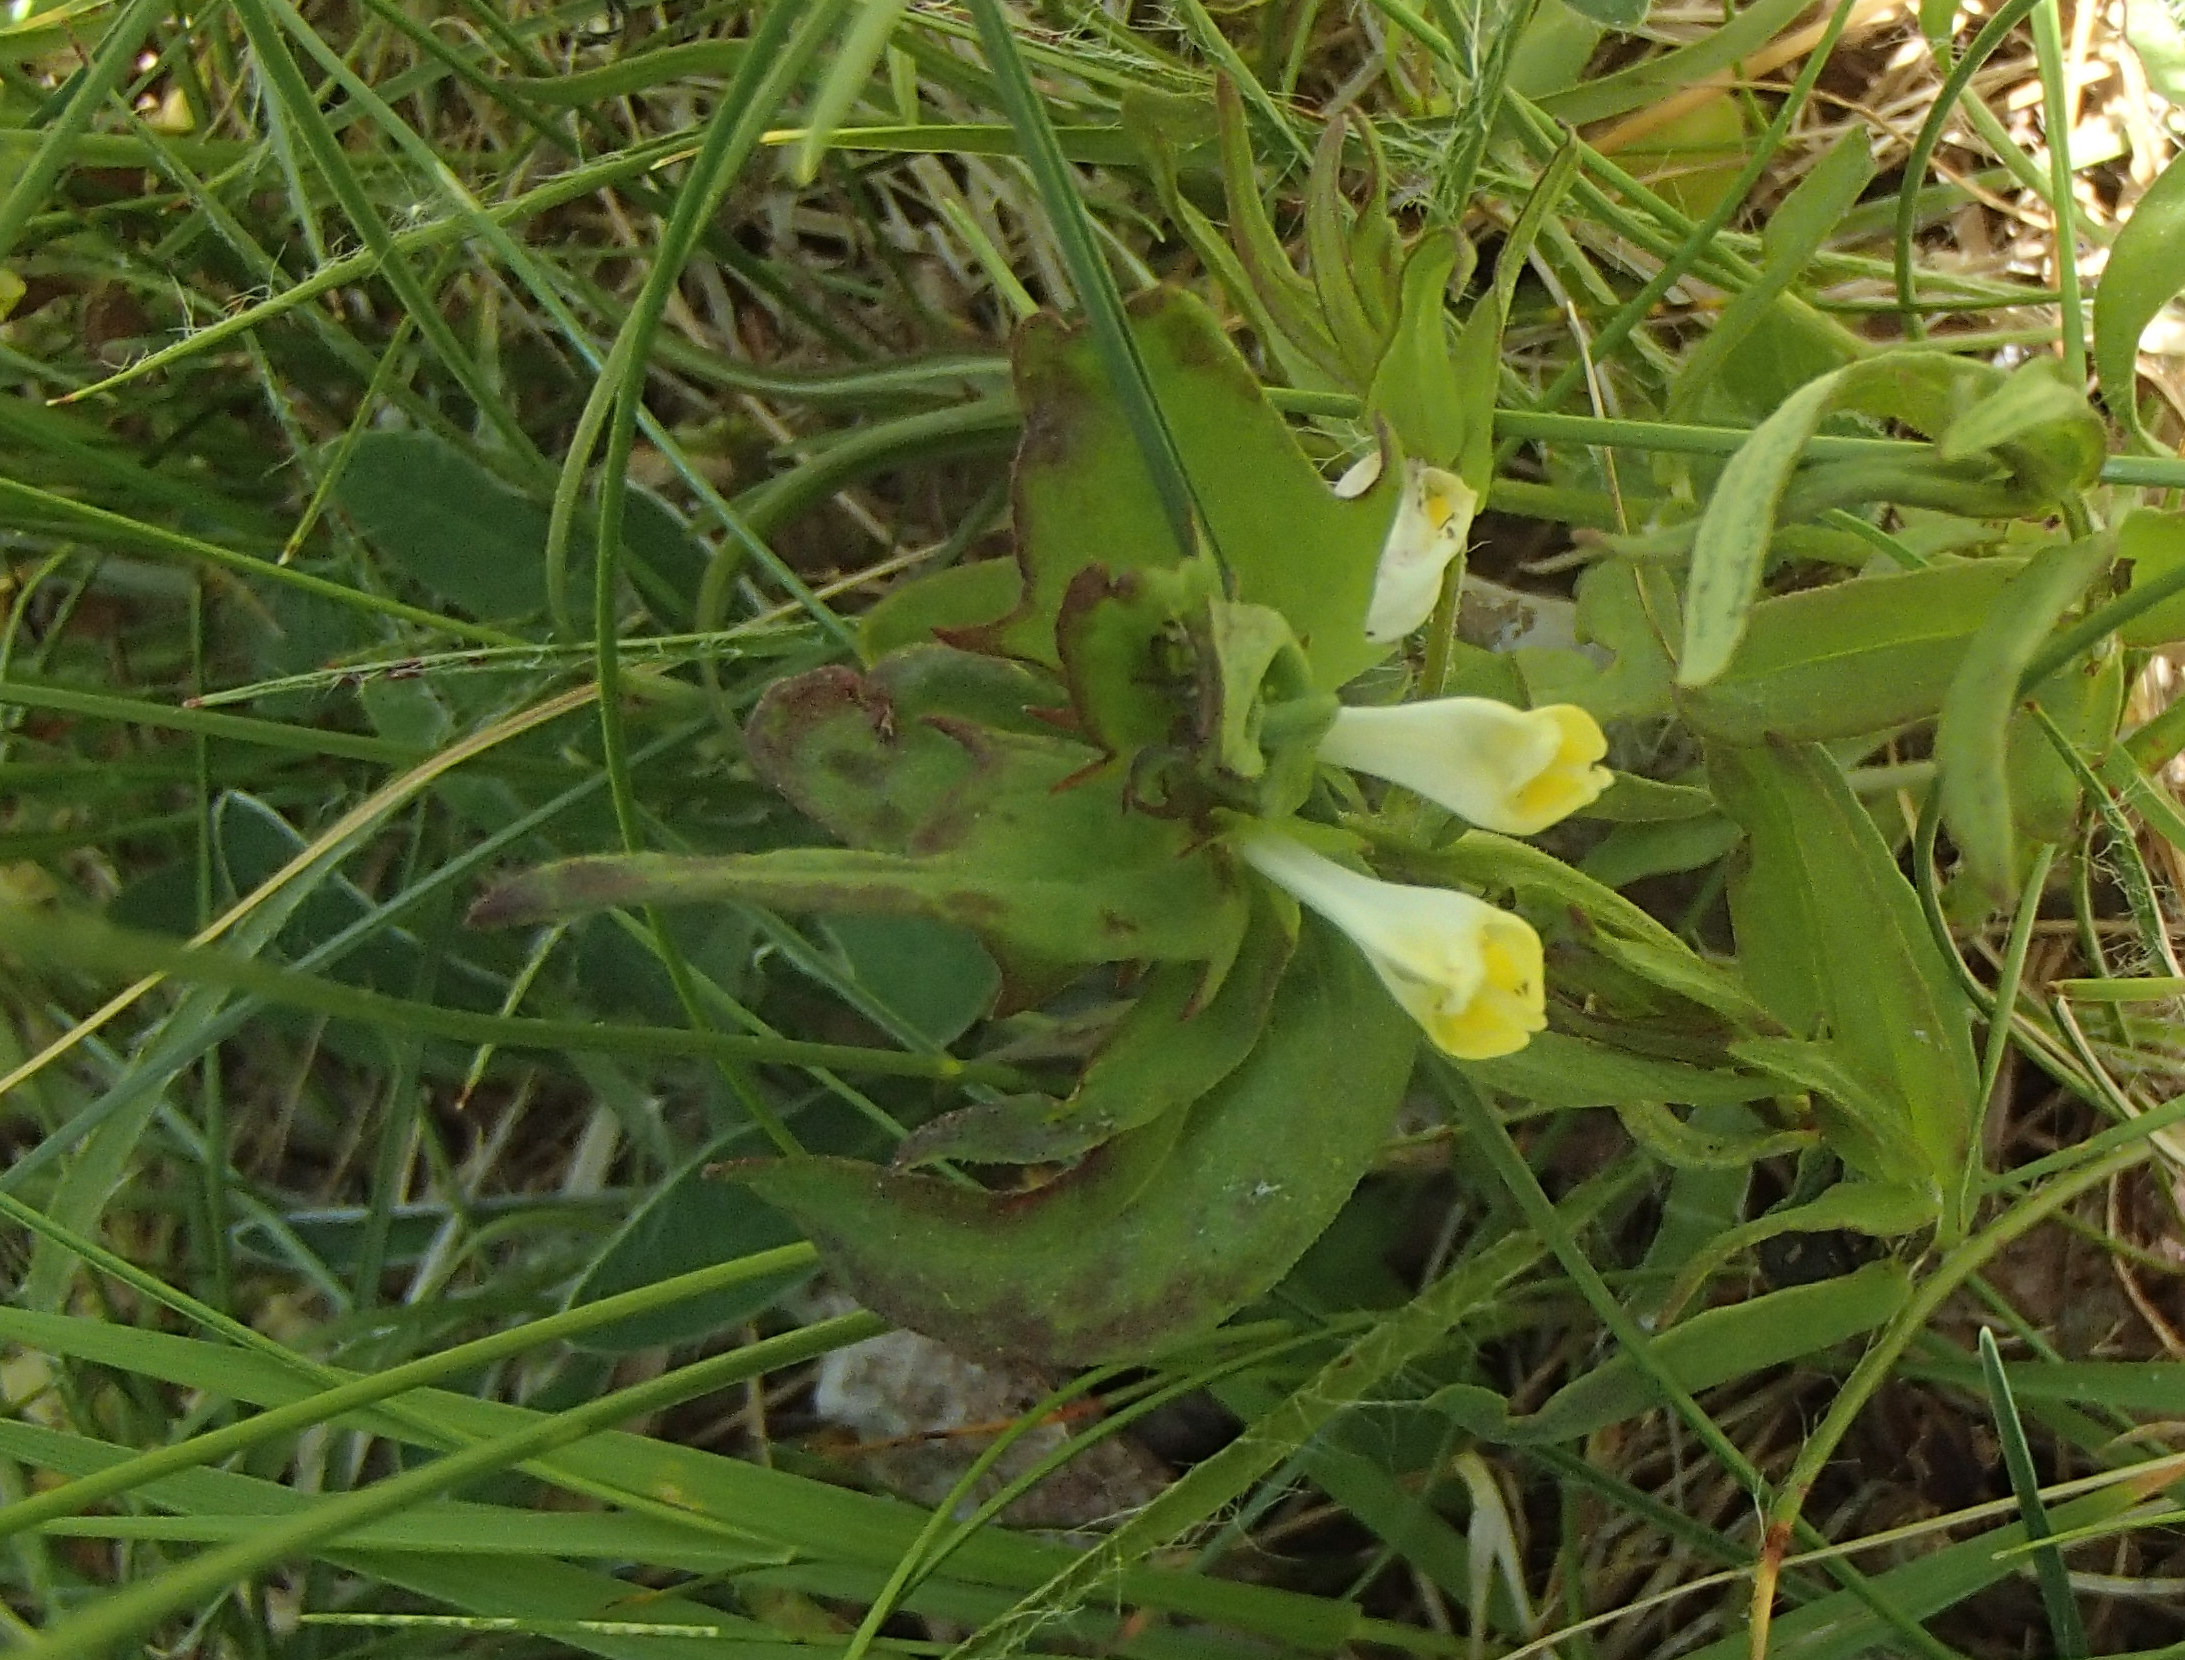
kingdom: Plantae
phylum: Tracheophyta
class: Magnoliopsida
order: Lamiales
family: Orobanchaceae
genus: Melampyrum
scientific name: Melampyrum pratense
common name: Almindelig kohvede
